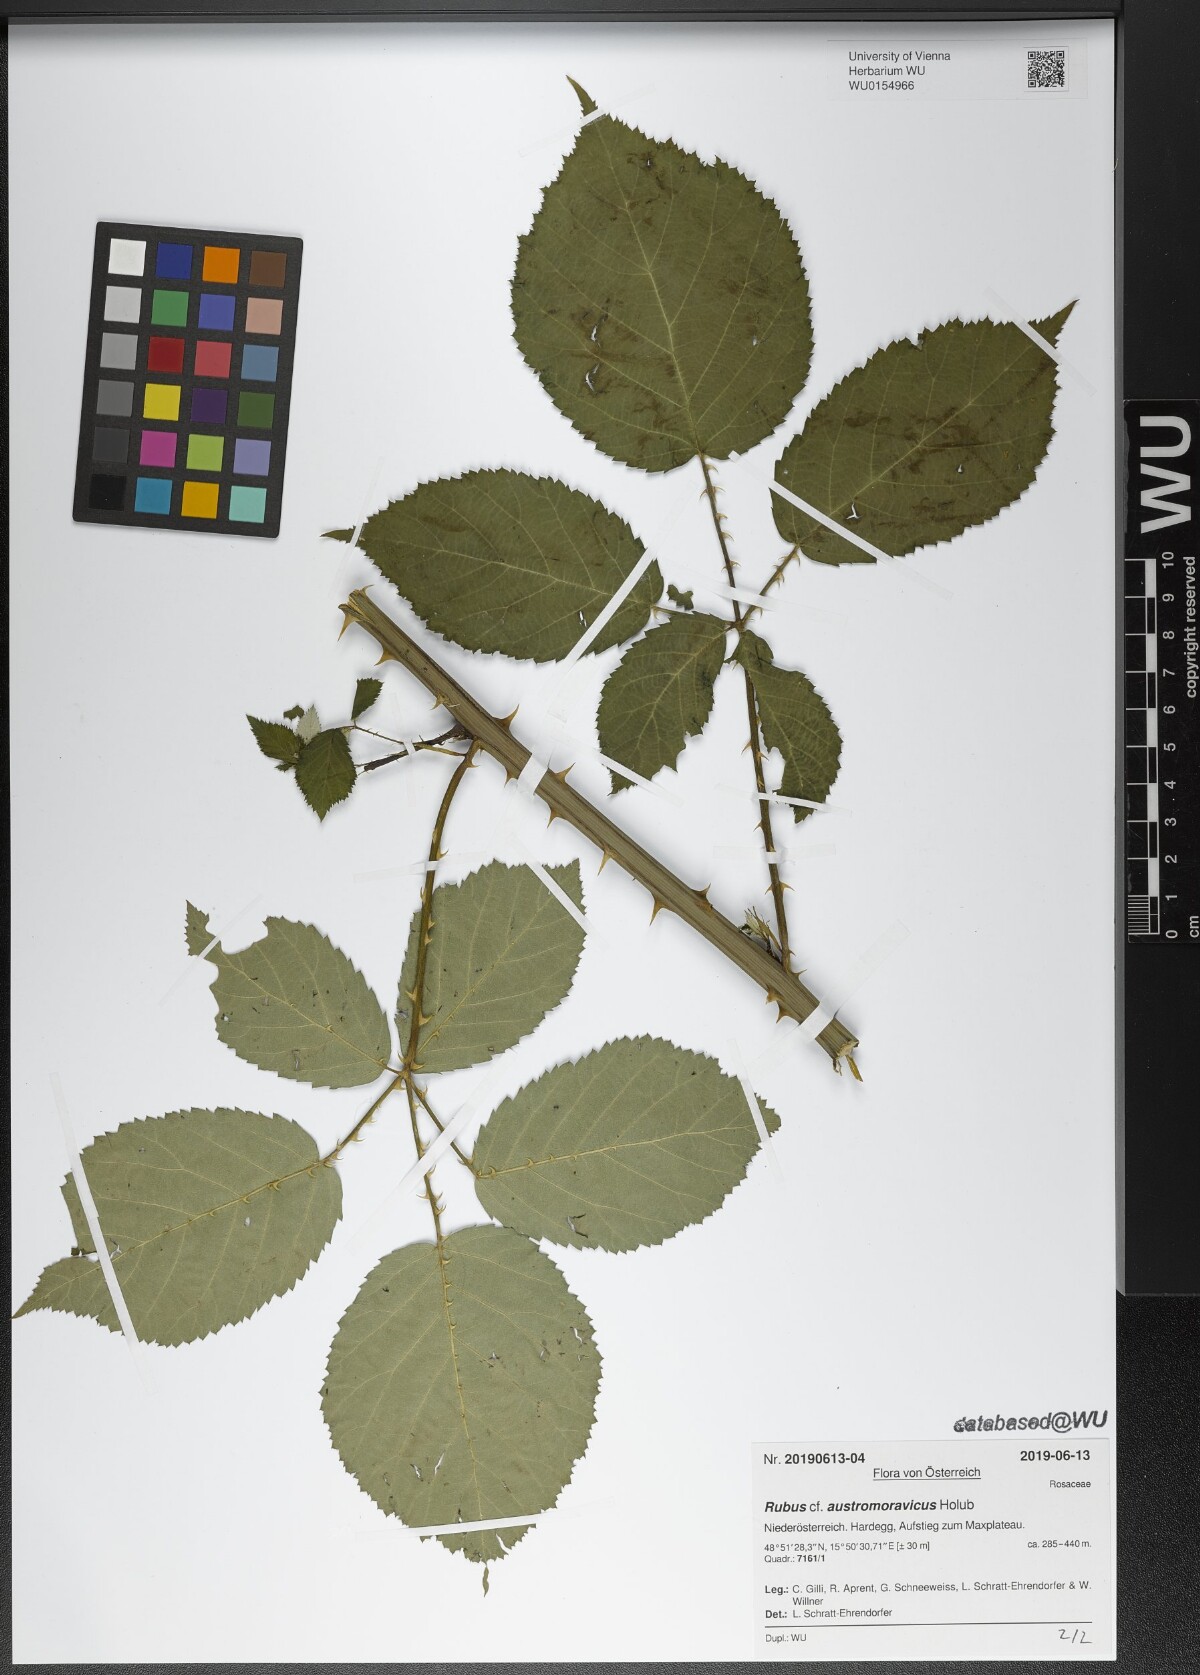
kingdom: Plantae
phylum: Tracheophyta
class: Magnoliopsida
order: Rosales
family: Rosaceae
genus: Rubus
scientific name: Rubus austromoravicus
